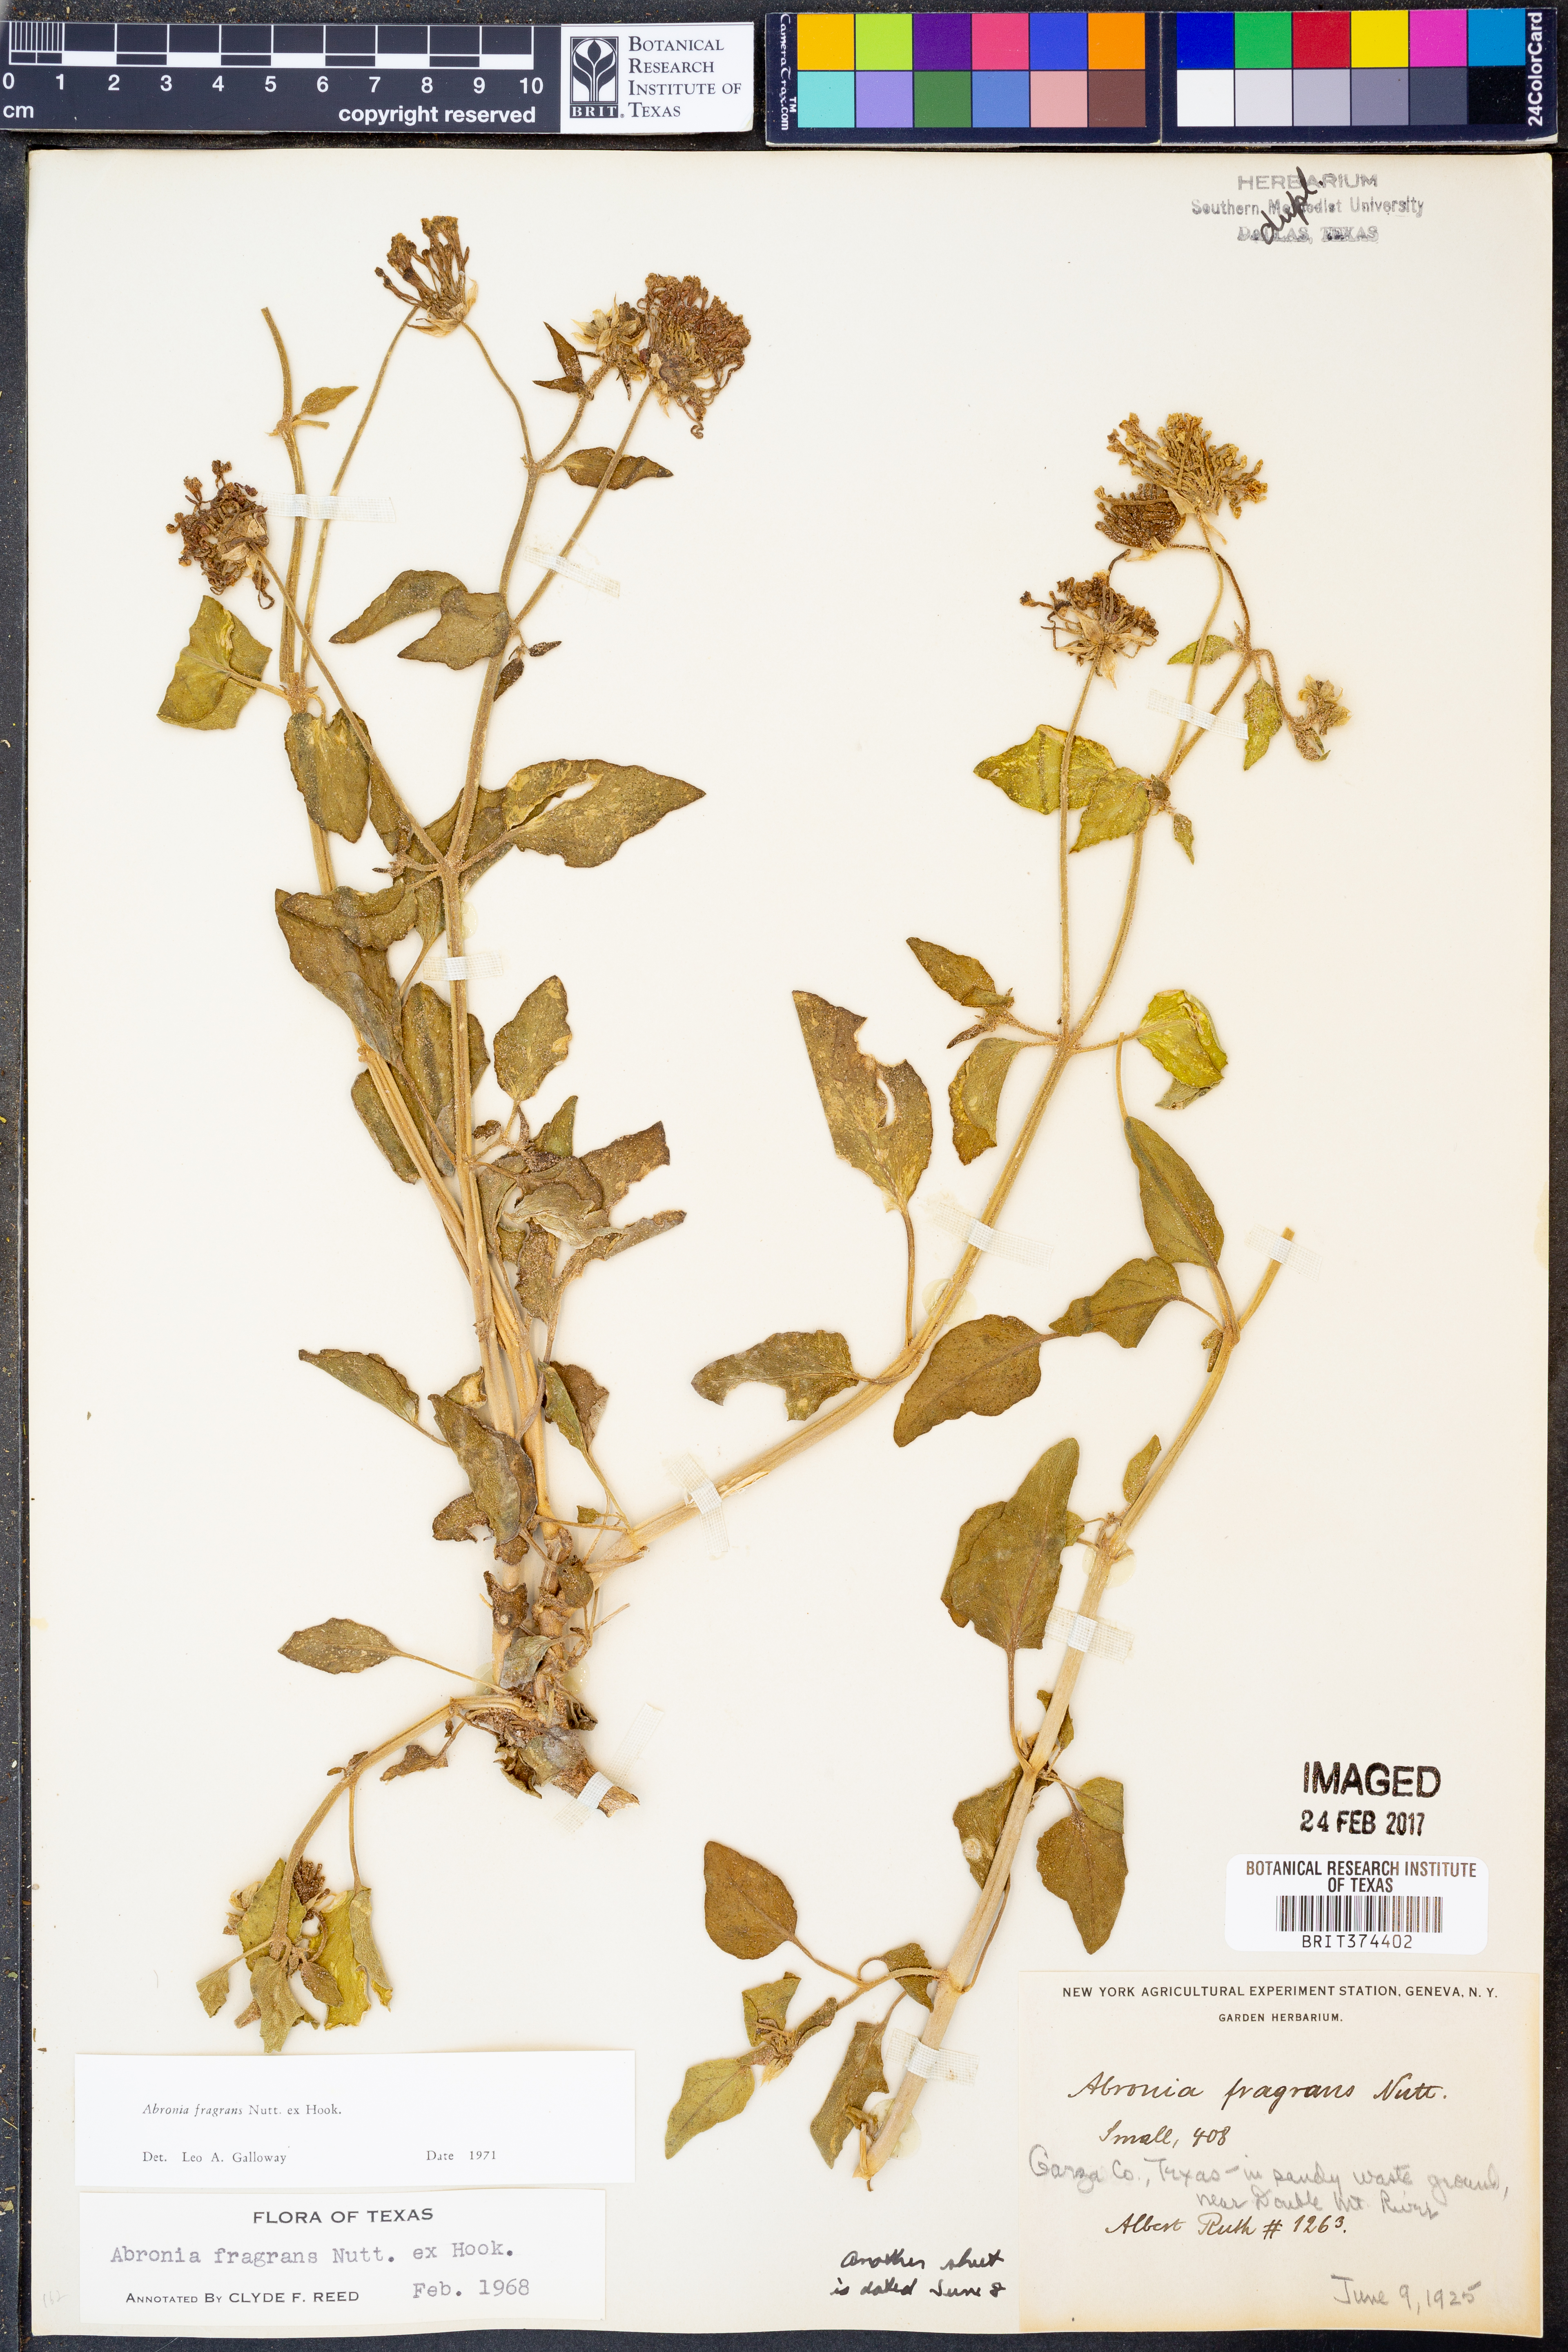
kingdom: Plantae
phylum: Tracheophyta
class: Magnoliopsida
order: Caryophyllales
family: Nyctaginaceae
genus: Abronia
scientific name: Abronia fragrans
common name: Fragrant sand-verbena
